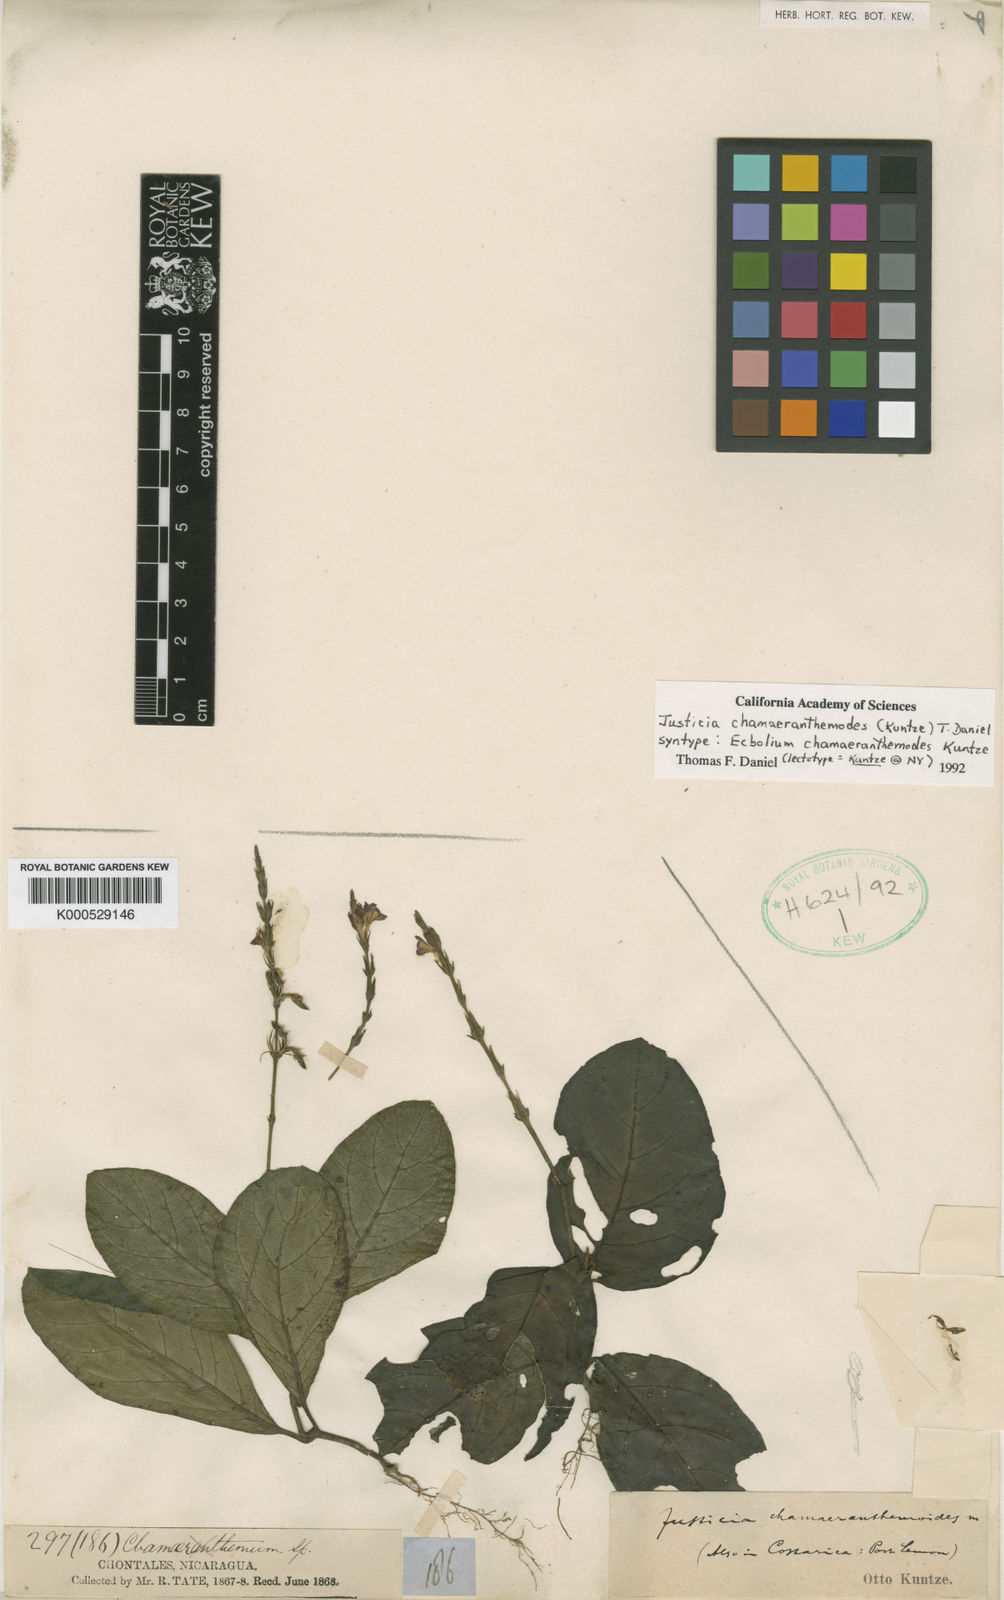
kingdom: Plantae
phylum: Tracheophyta
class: Magnoliopsida
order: Lamiales
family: Acanthaceae
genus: Justicia
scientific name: Justicia
